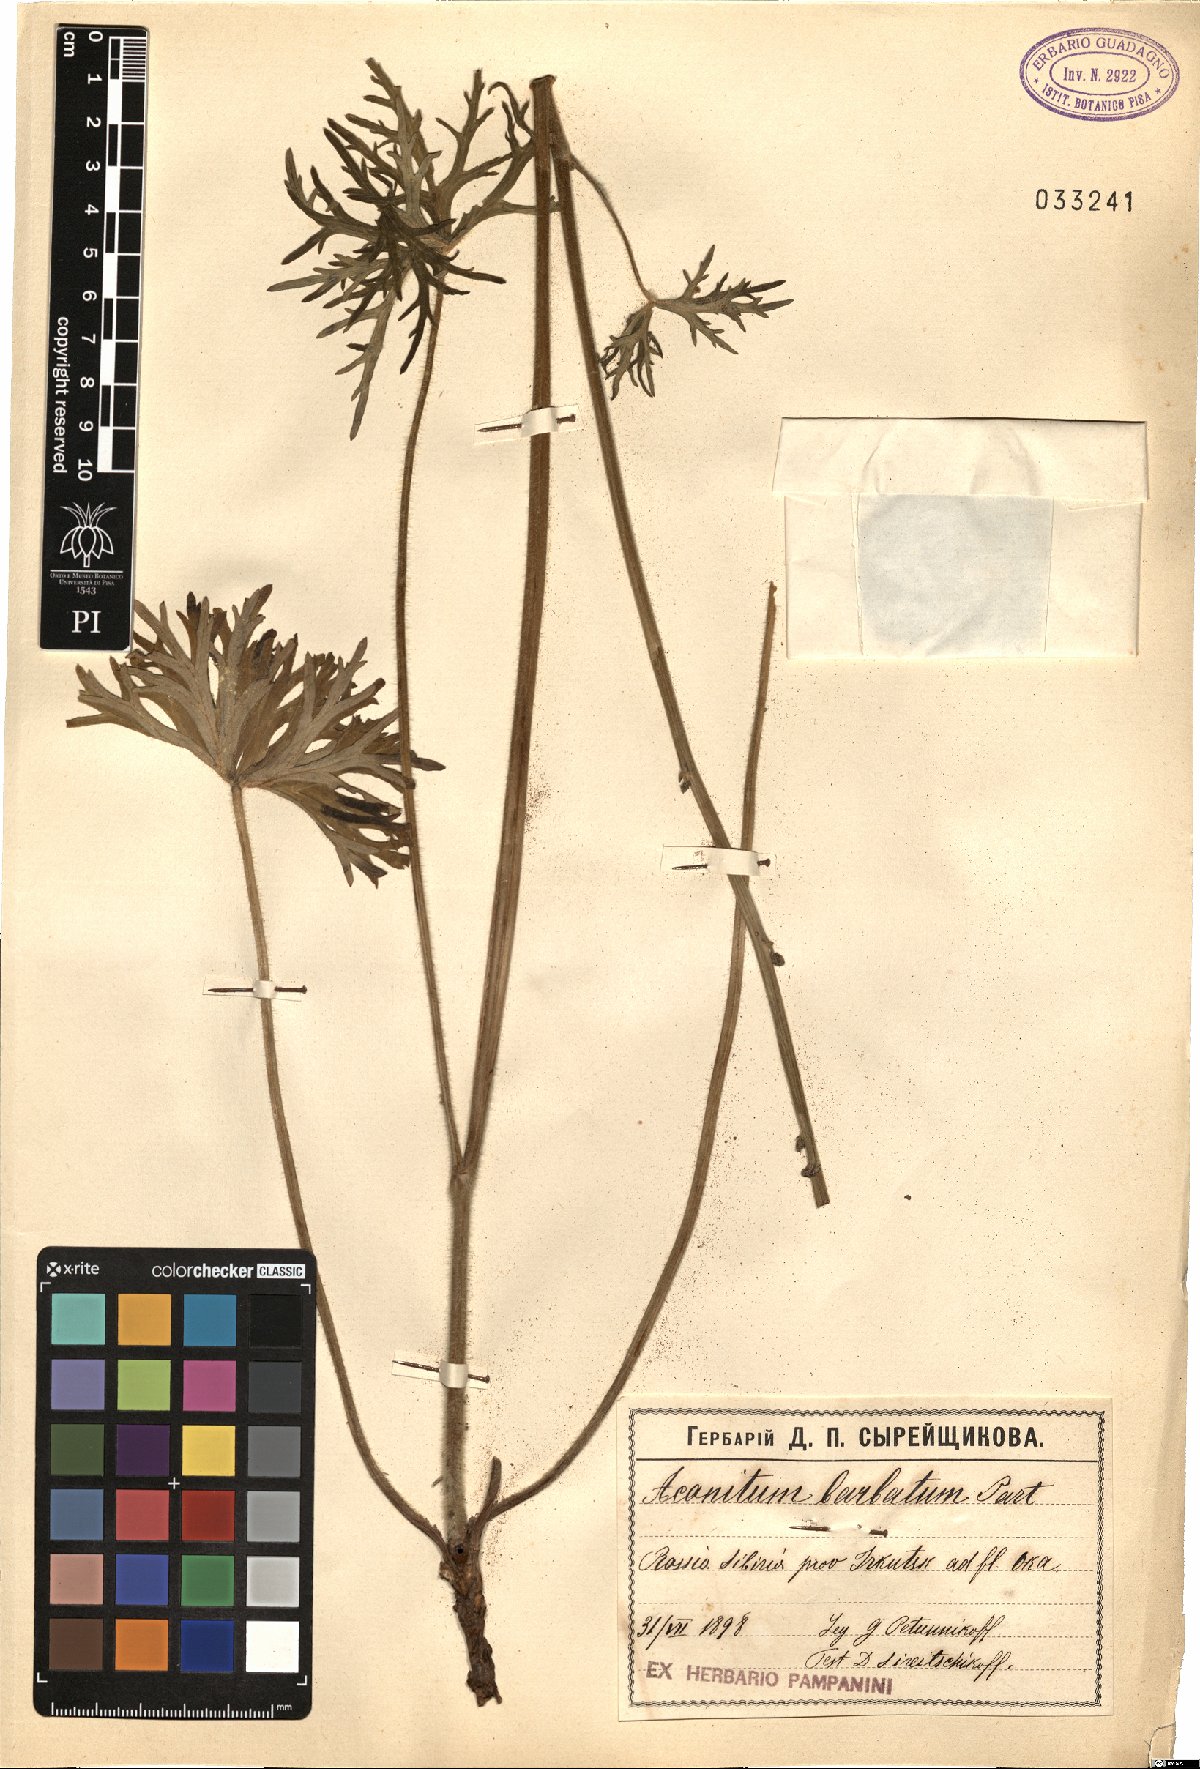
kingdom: Plantae
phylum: Tracheophyta
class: Magnoliopsida
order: Ranunculales
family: Ranunculaceae
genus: Aconitum
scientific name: Aconitum barbatum
